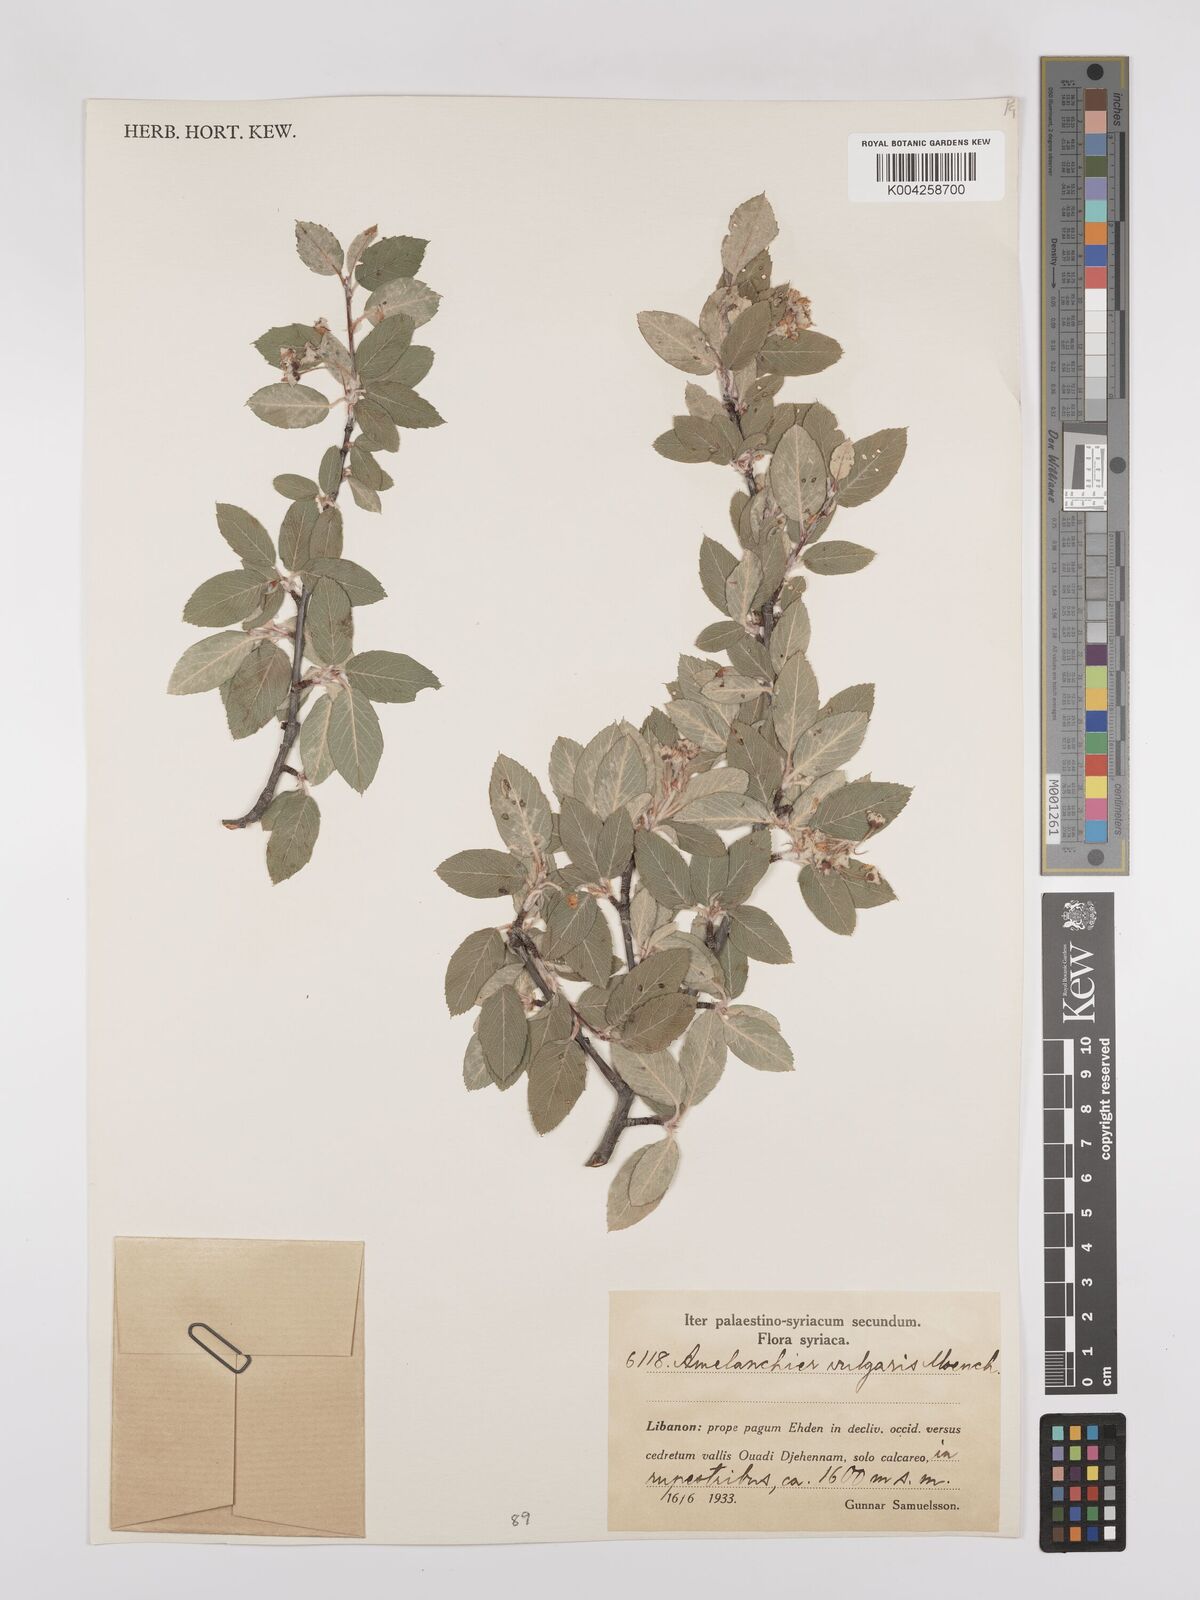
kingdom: Plantae
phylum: Tracheophyta
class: Magnoliopsida
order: Rosales
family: Rosaceae
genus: Amelanchier
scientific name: Amelanchier ovalis
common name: Serviceberry
